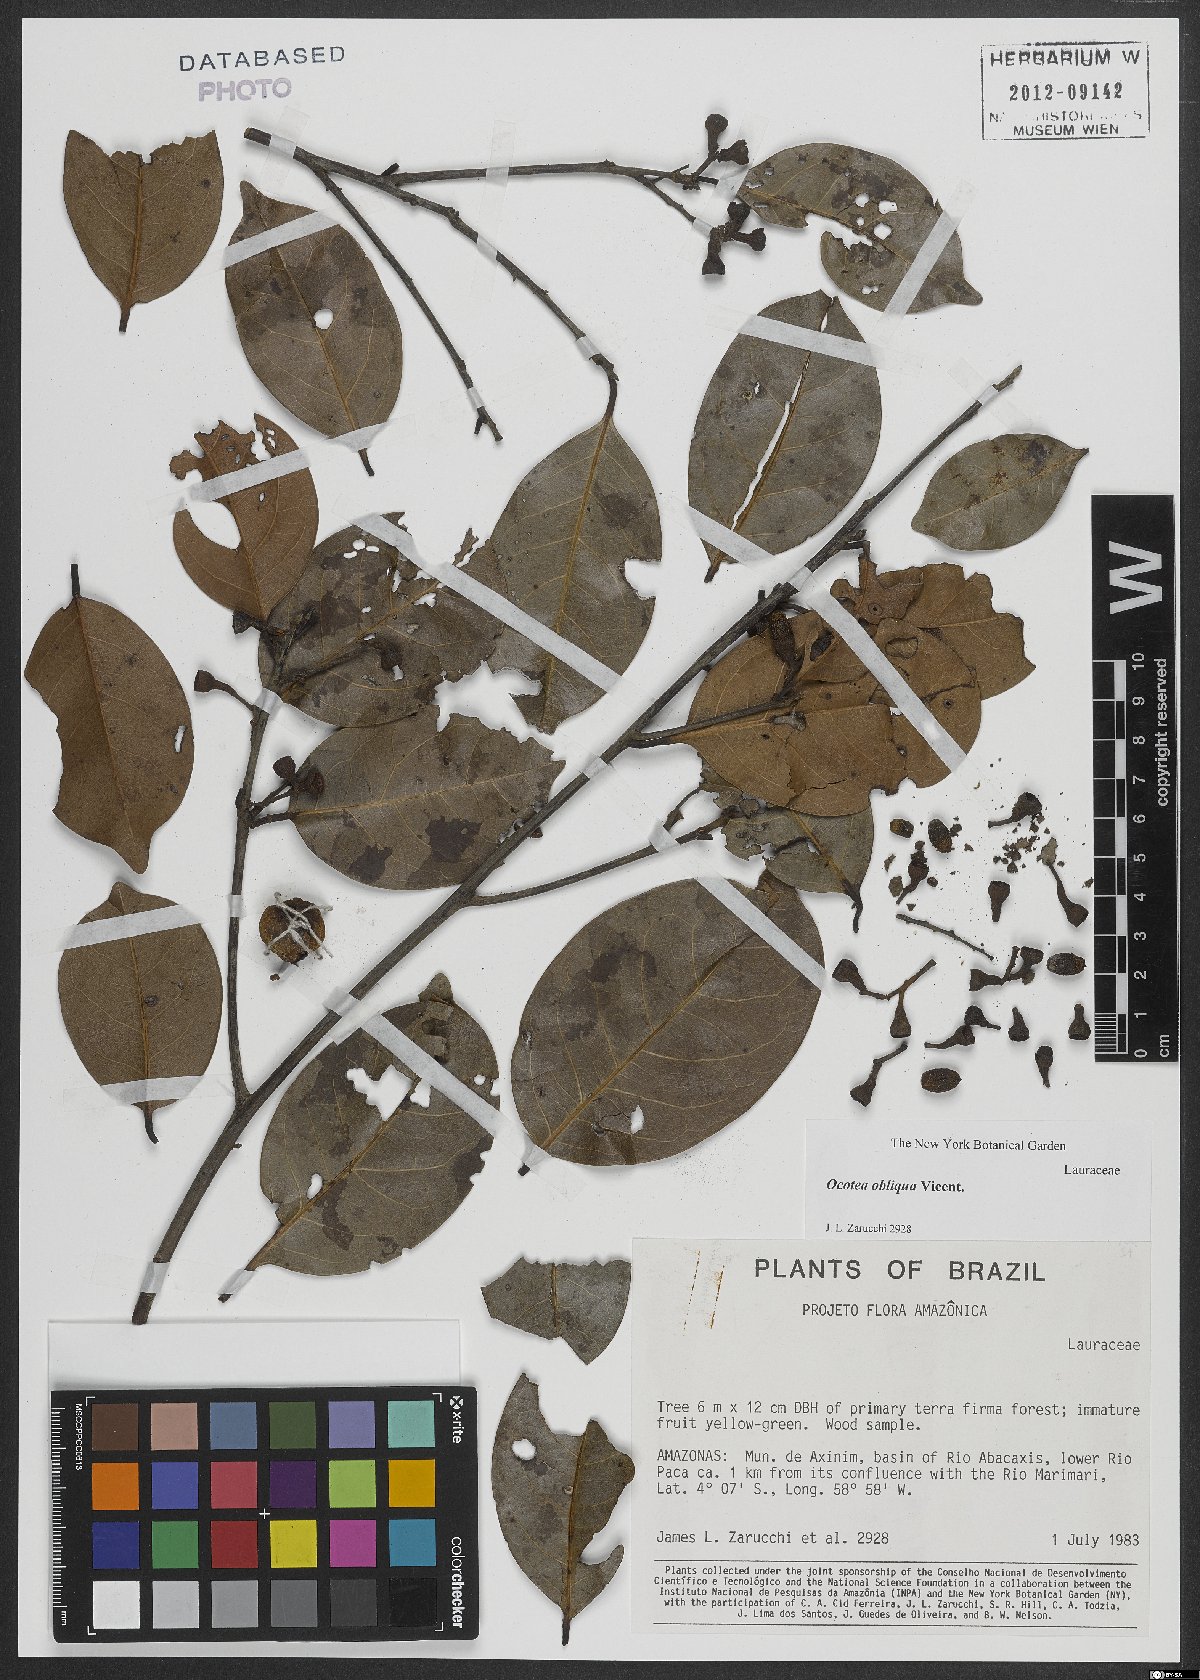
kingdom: Plantae
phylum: Tracheophyta
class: Magnoliopsida
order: Laurales
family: Lauraceae
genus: Ocotea
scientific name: Ocotea obliqua
